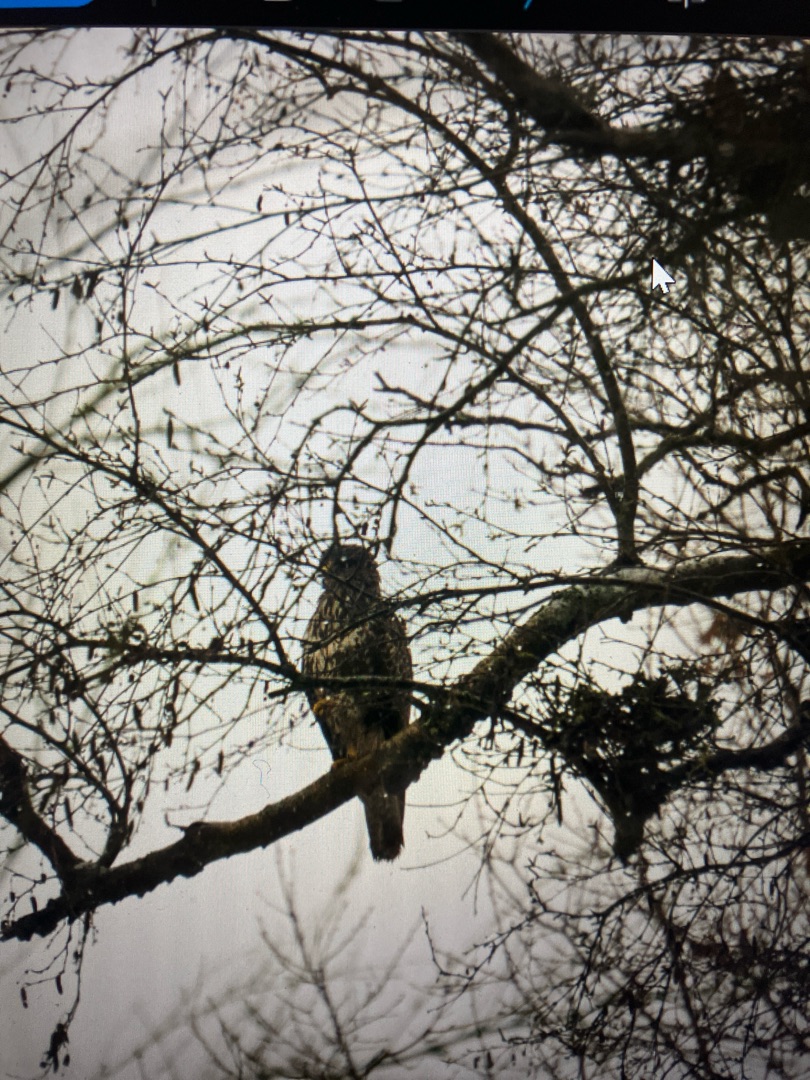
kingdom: Animalia
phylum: Chordata
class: Aves
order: Accipitriformes
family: Accipitridae
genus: Buteo
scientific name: Buteo buteo
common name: Musvåge
